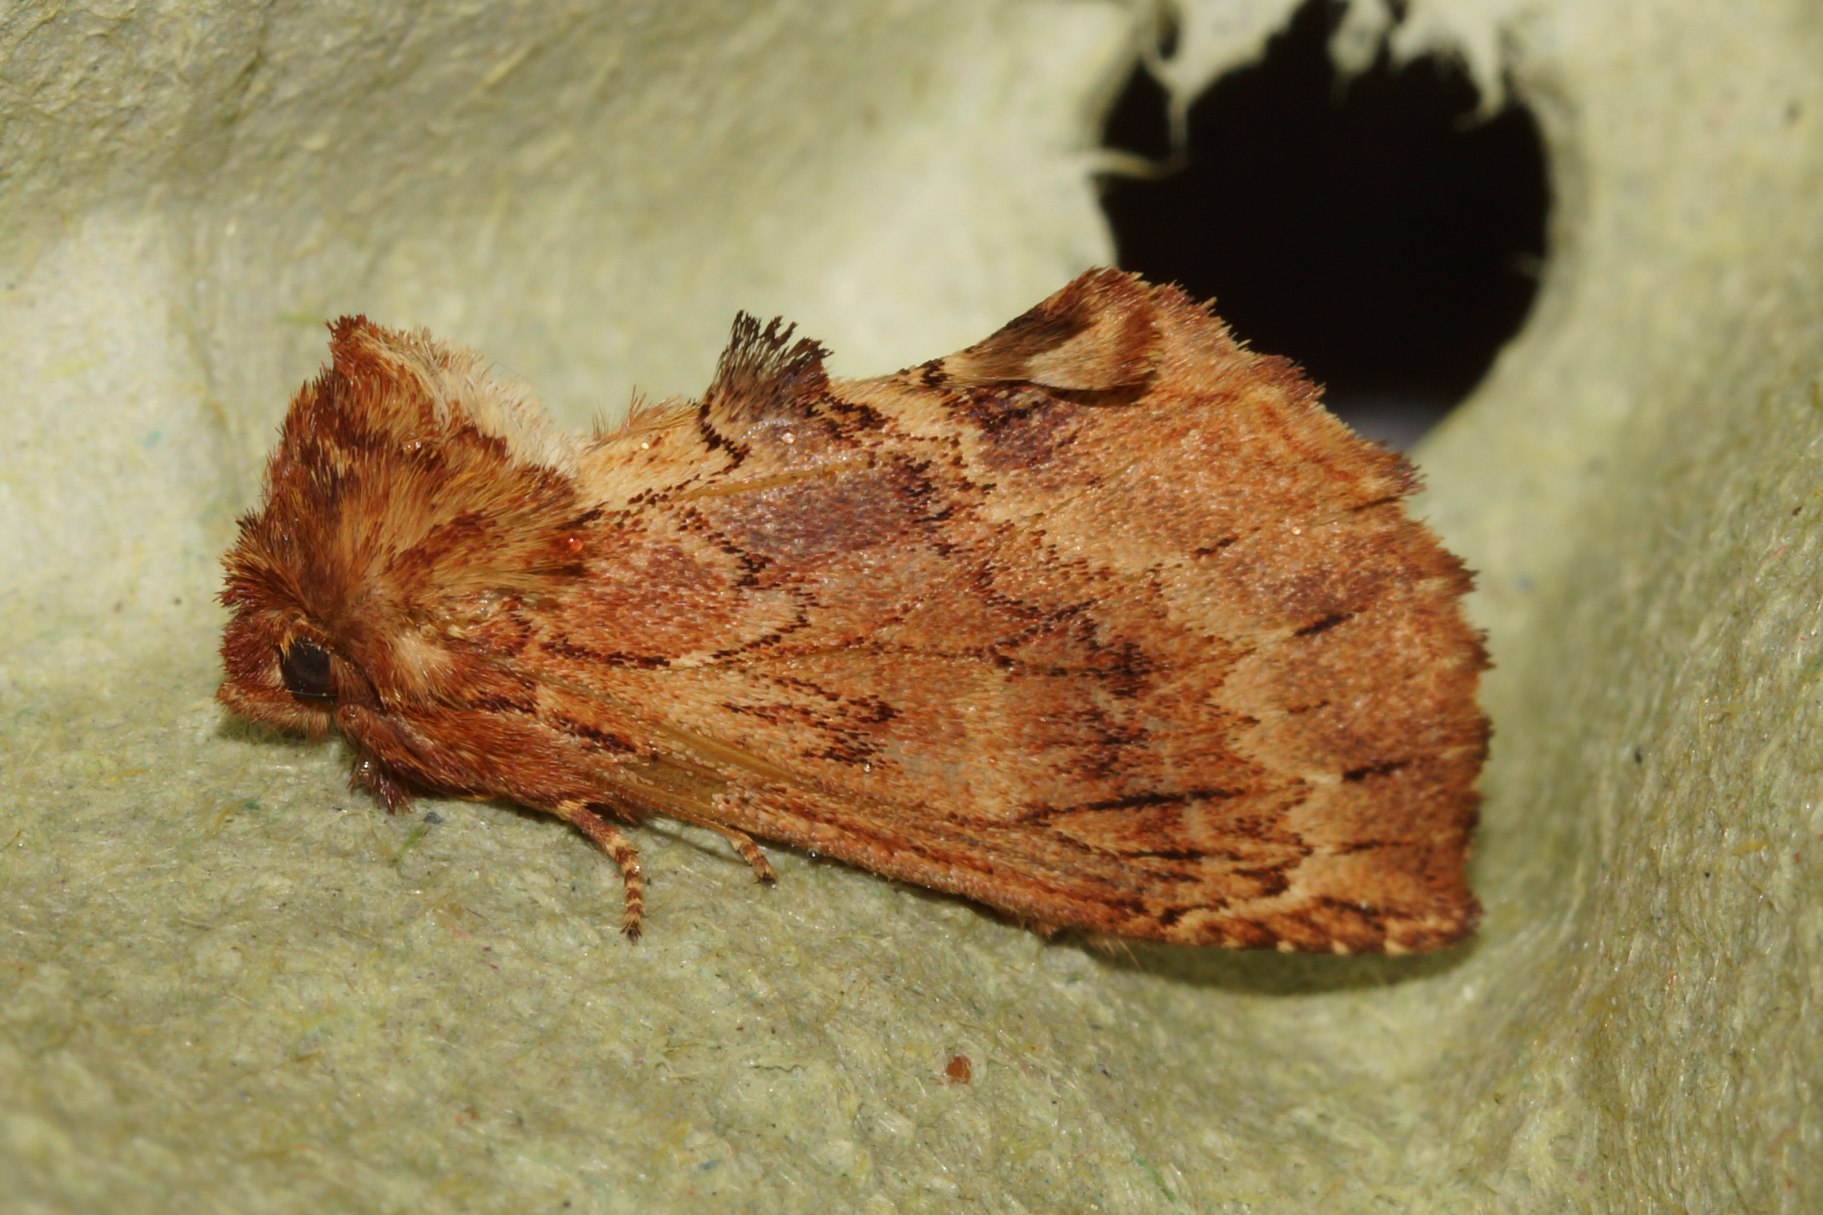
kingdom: Animalia
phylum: Arthropoda
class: Insecta
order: Lepidoptera
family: Notodontidae
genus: Ptilodon
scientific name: Ptilodon capucina
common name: Kamelspinder
